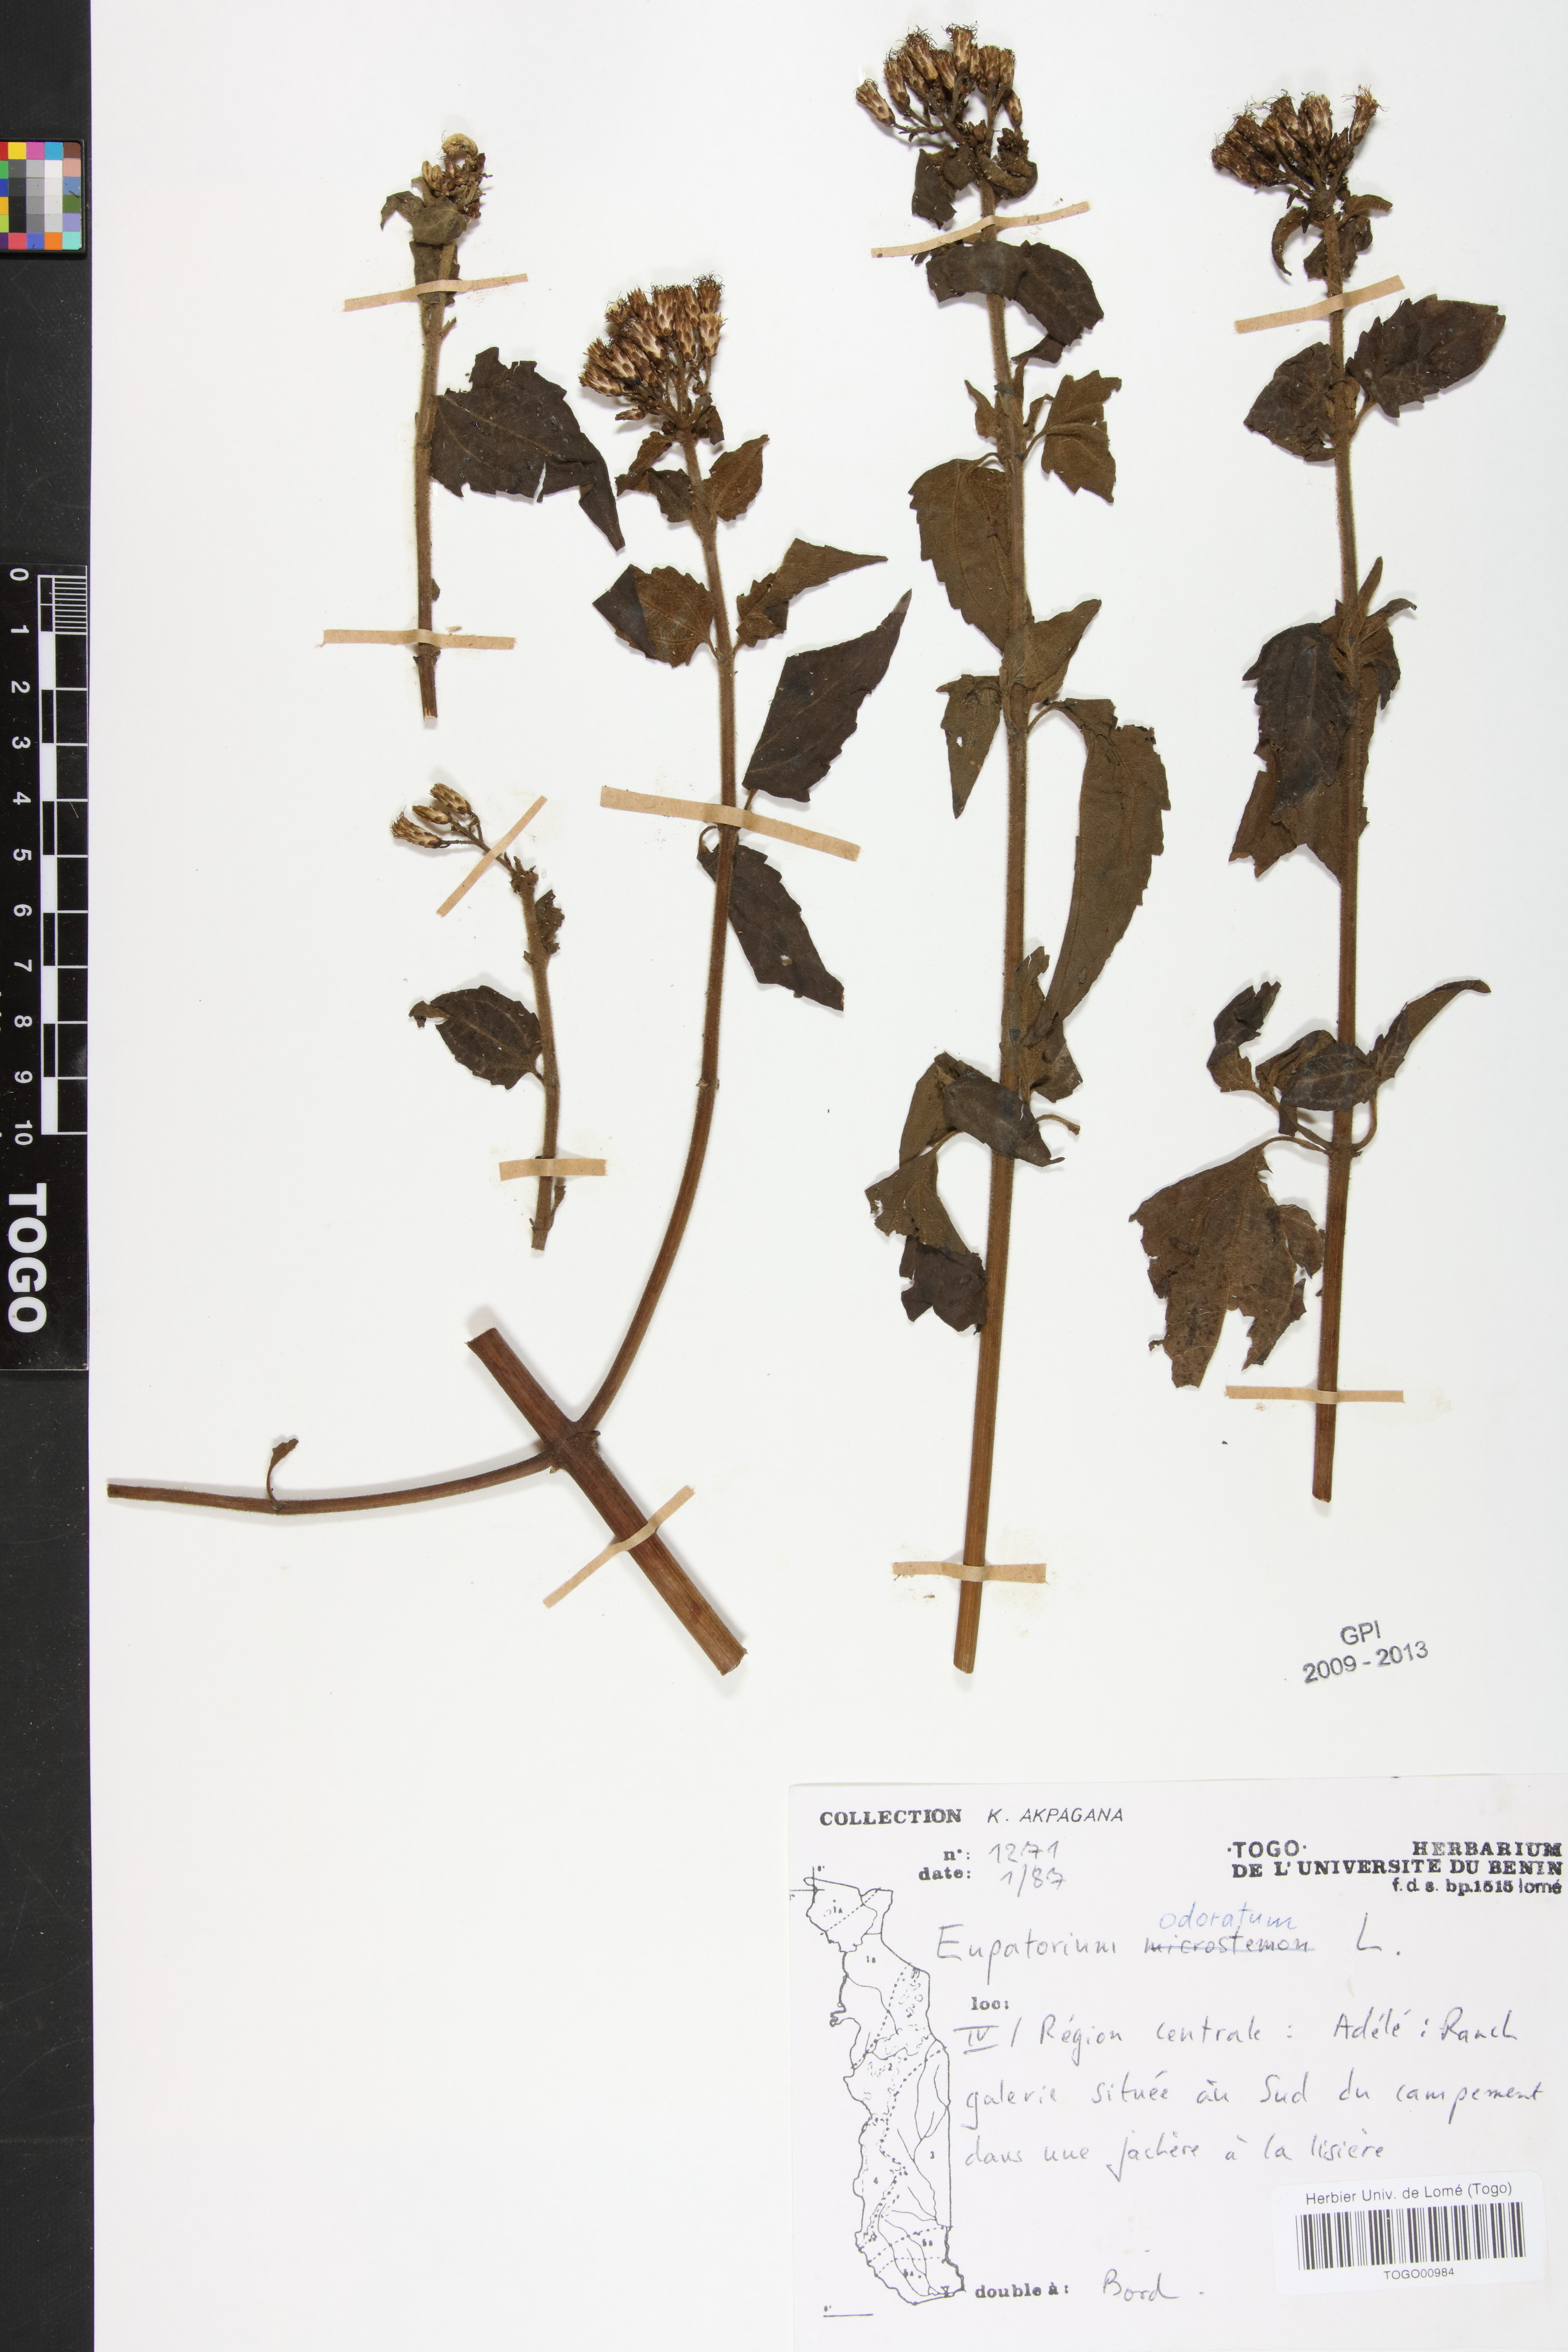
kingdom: Plantae
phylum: Tracheophyta
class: Magnoliopsida
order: Asterales
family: Asteraceae
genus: Chromolaena
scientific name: Chromolaena odorata
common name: Siamweed
